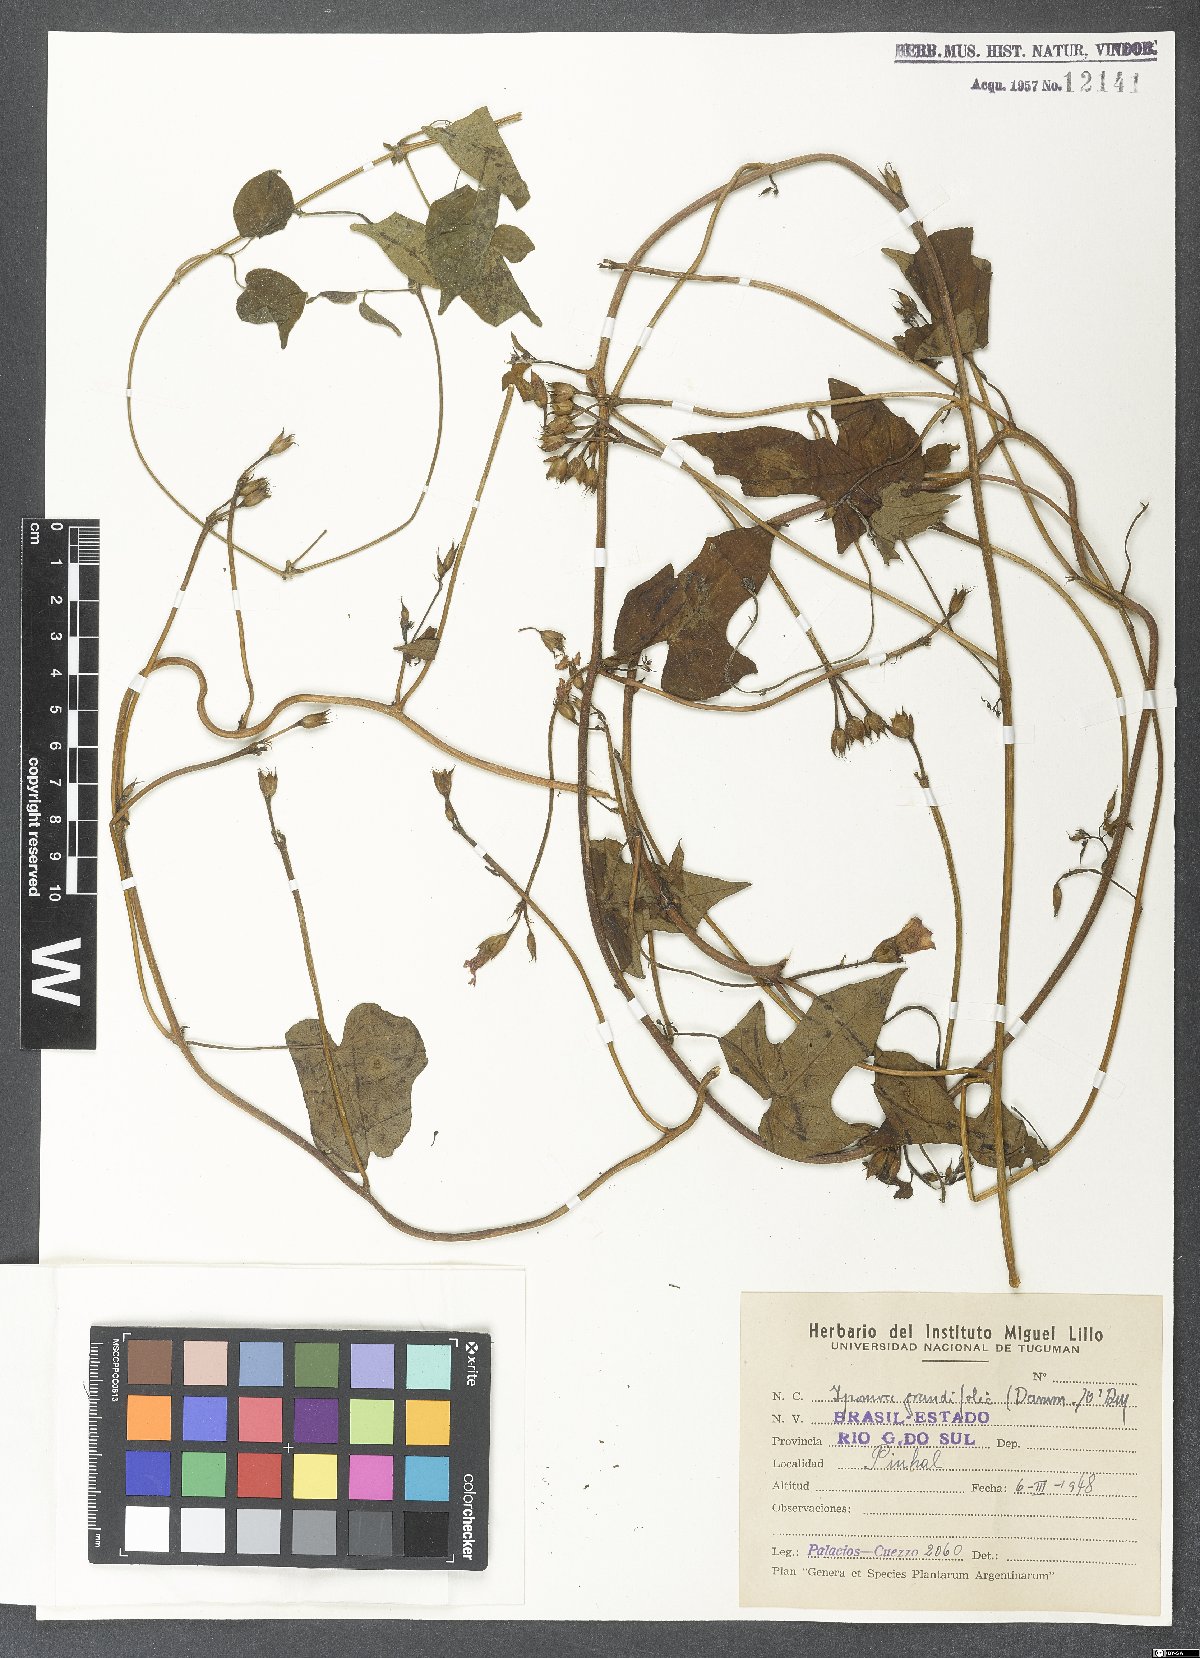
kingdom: Plantae
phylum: Tracheophyta
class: Magnoliopsida
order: Solanales
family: Convolvulaceae
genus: Ipomoea
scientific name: Ipomoea grandifolia
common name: Aiea morning glory
